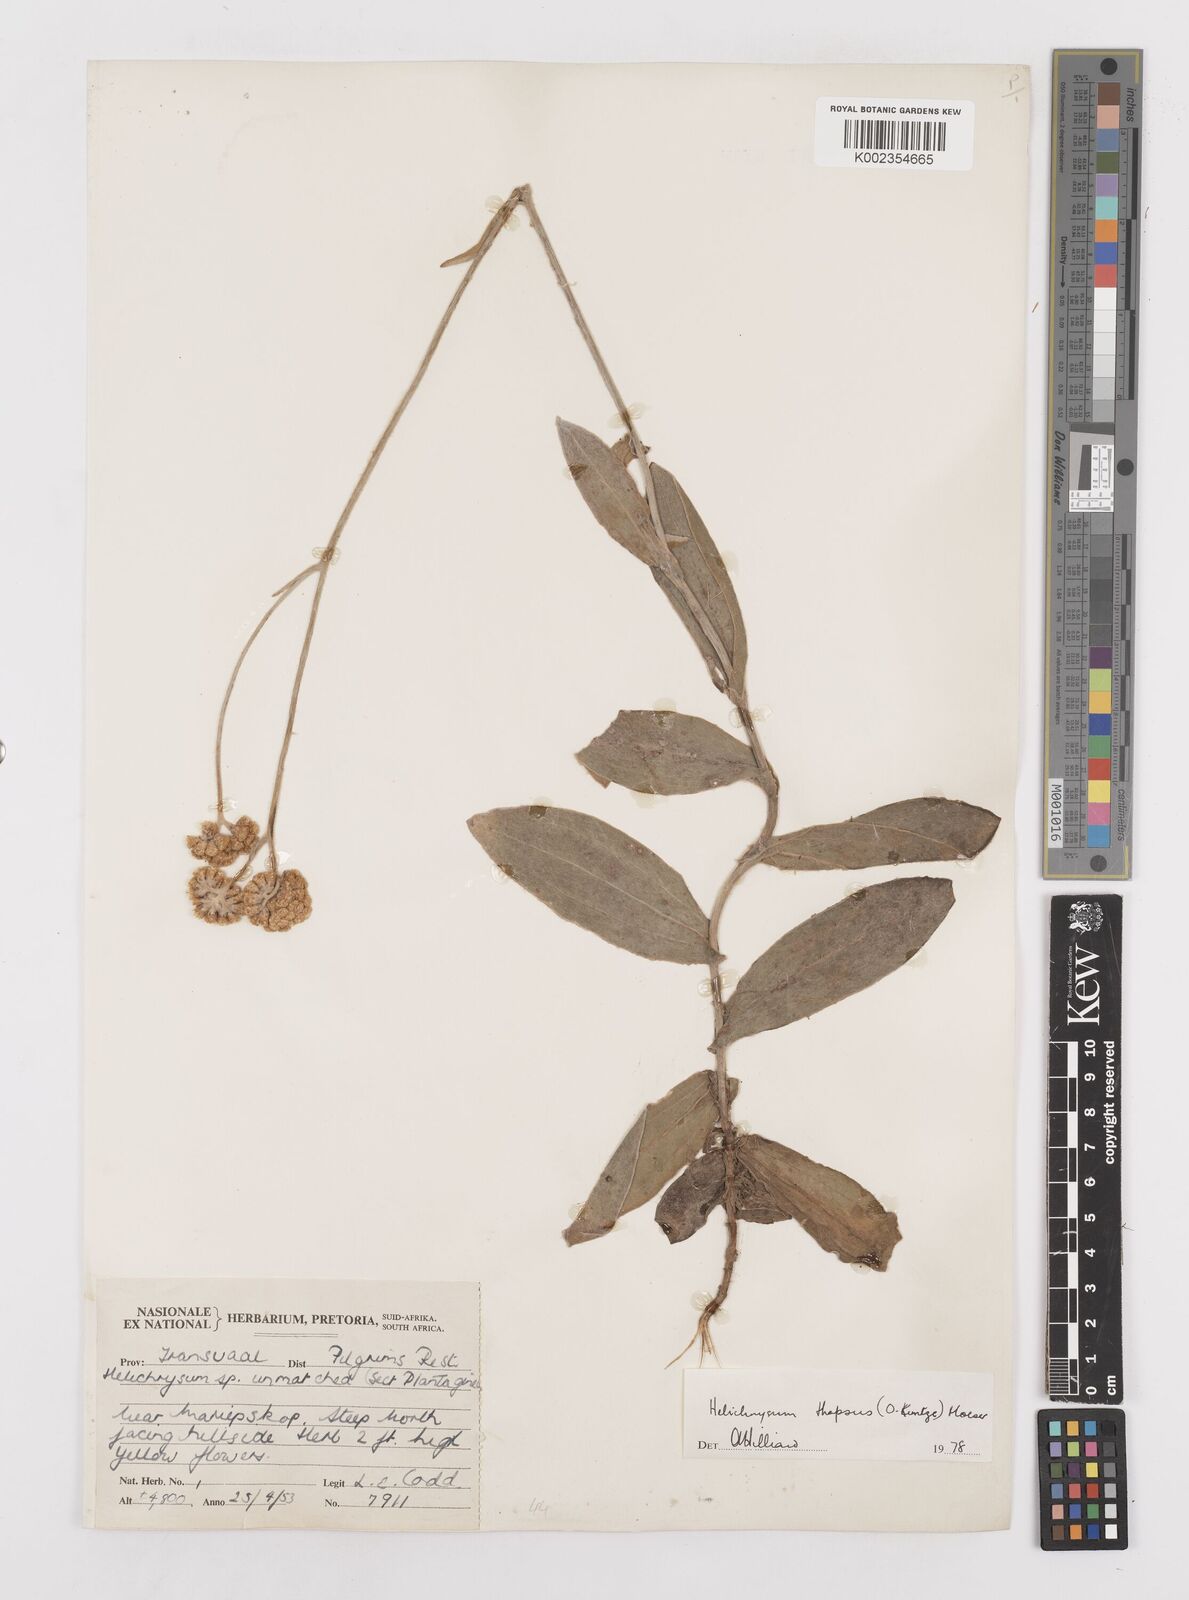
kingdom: Plantae
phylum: Tracheophyta
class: Magnoliopsida
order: Asterales
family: Asteraceae
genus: Helichrysum
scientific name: Helichrysum thapsus
